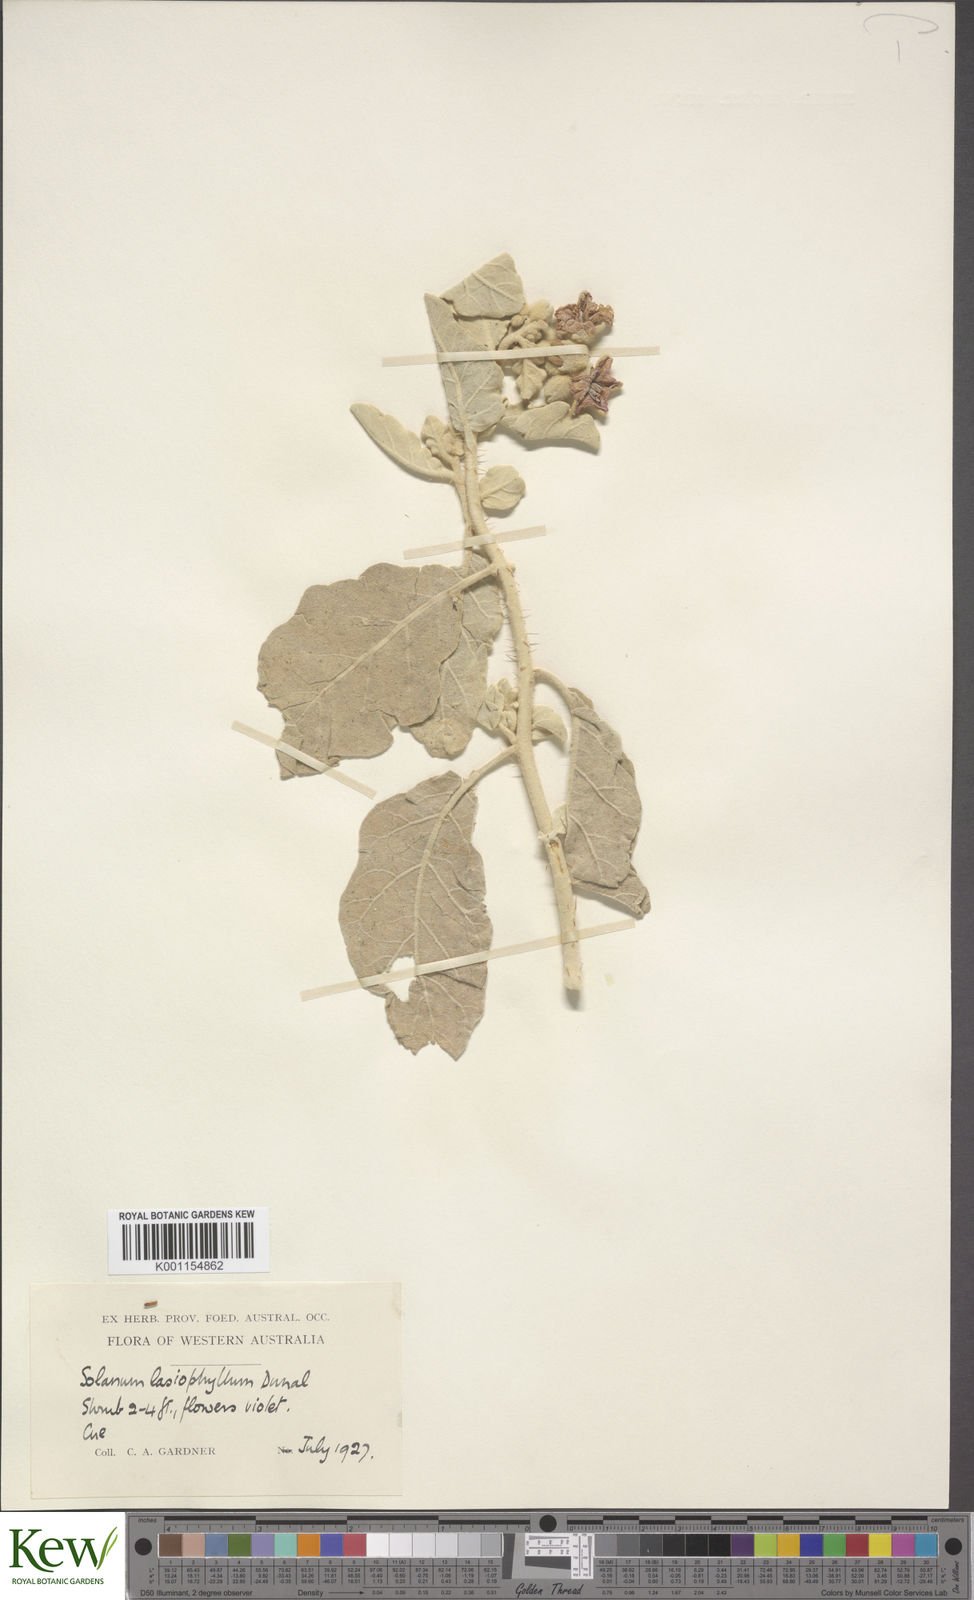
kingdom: Plantae
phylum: Tracheophyta
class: Magnoliopsida
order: Solanales
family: Solanaceae
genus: Solanum
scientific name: Solanum lasiophyllum
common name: Flannelbush
